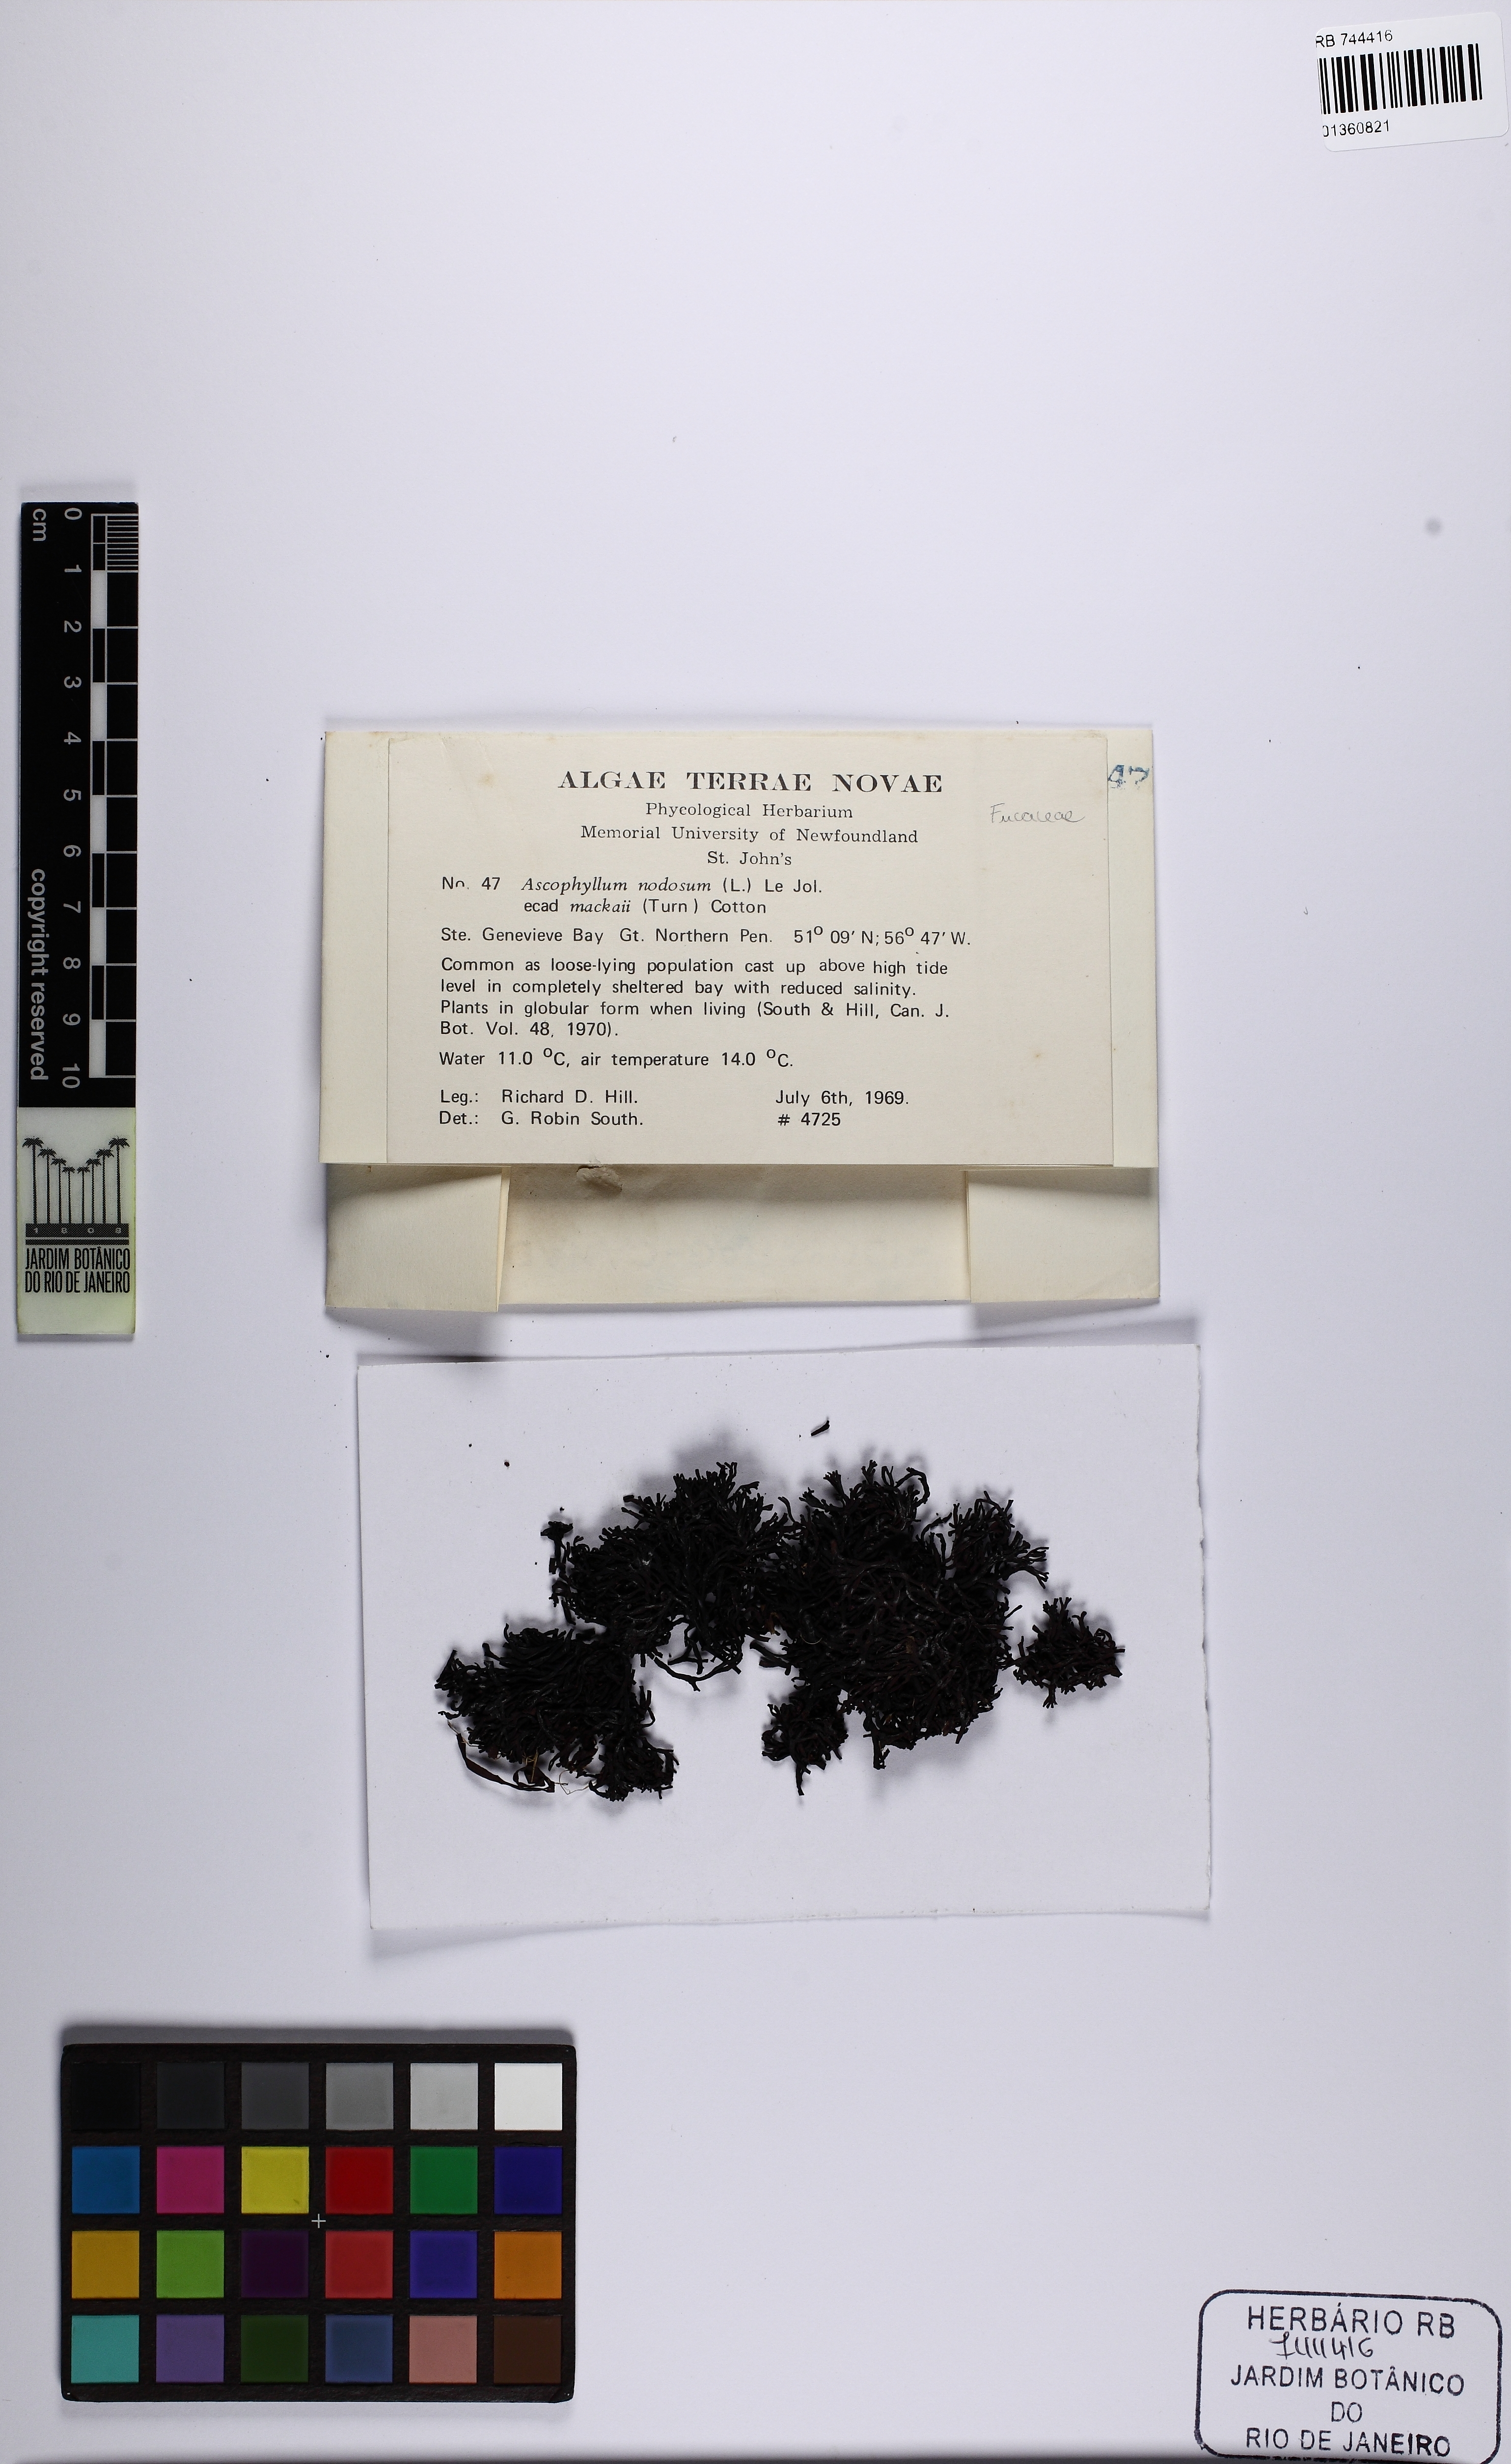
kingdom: Chromista
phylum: Ochrophyta
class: Phaeophyceae
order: Fucales
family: Fucaceae
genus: Ascophyllum
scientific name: Ascophyllum nodosum
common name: Knotted wrack
